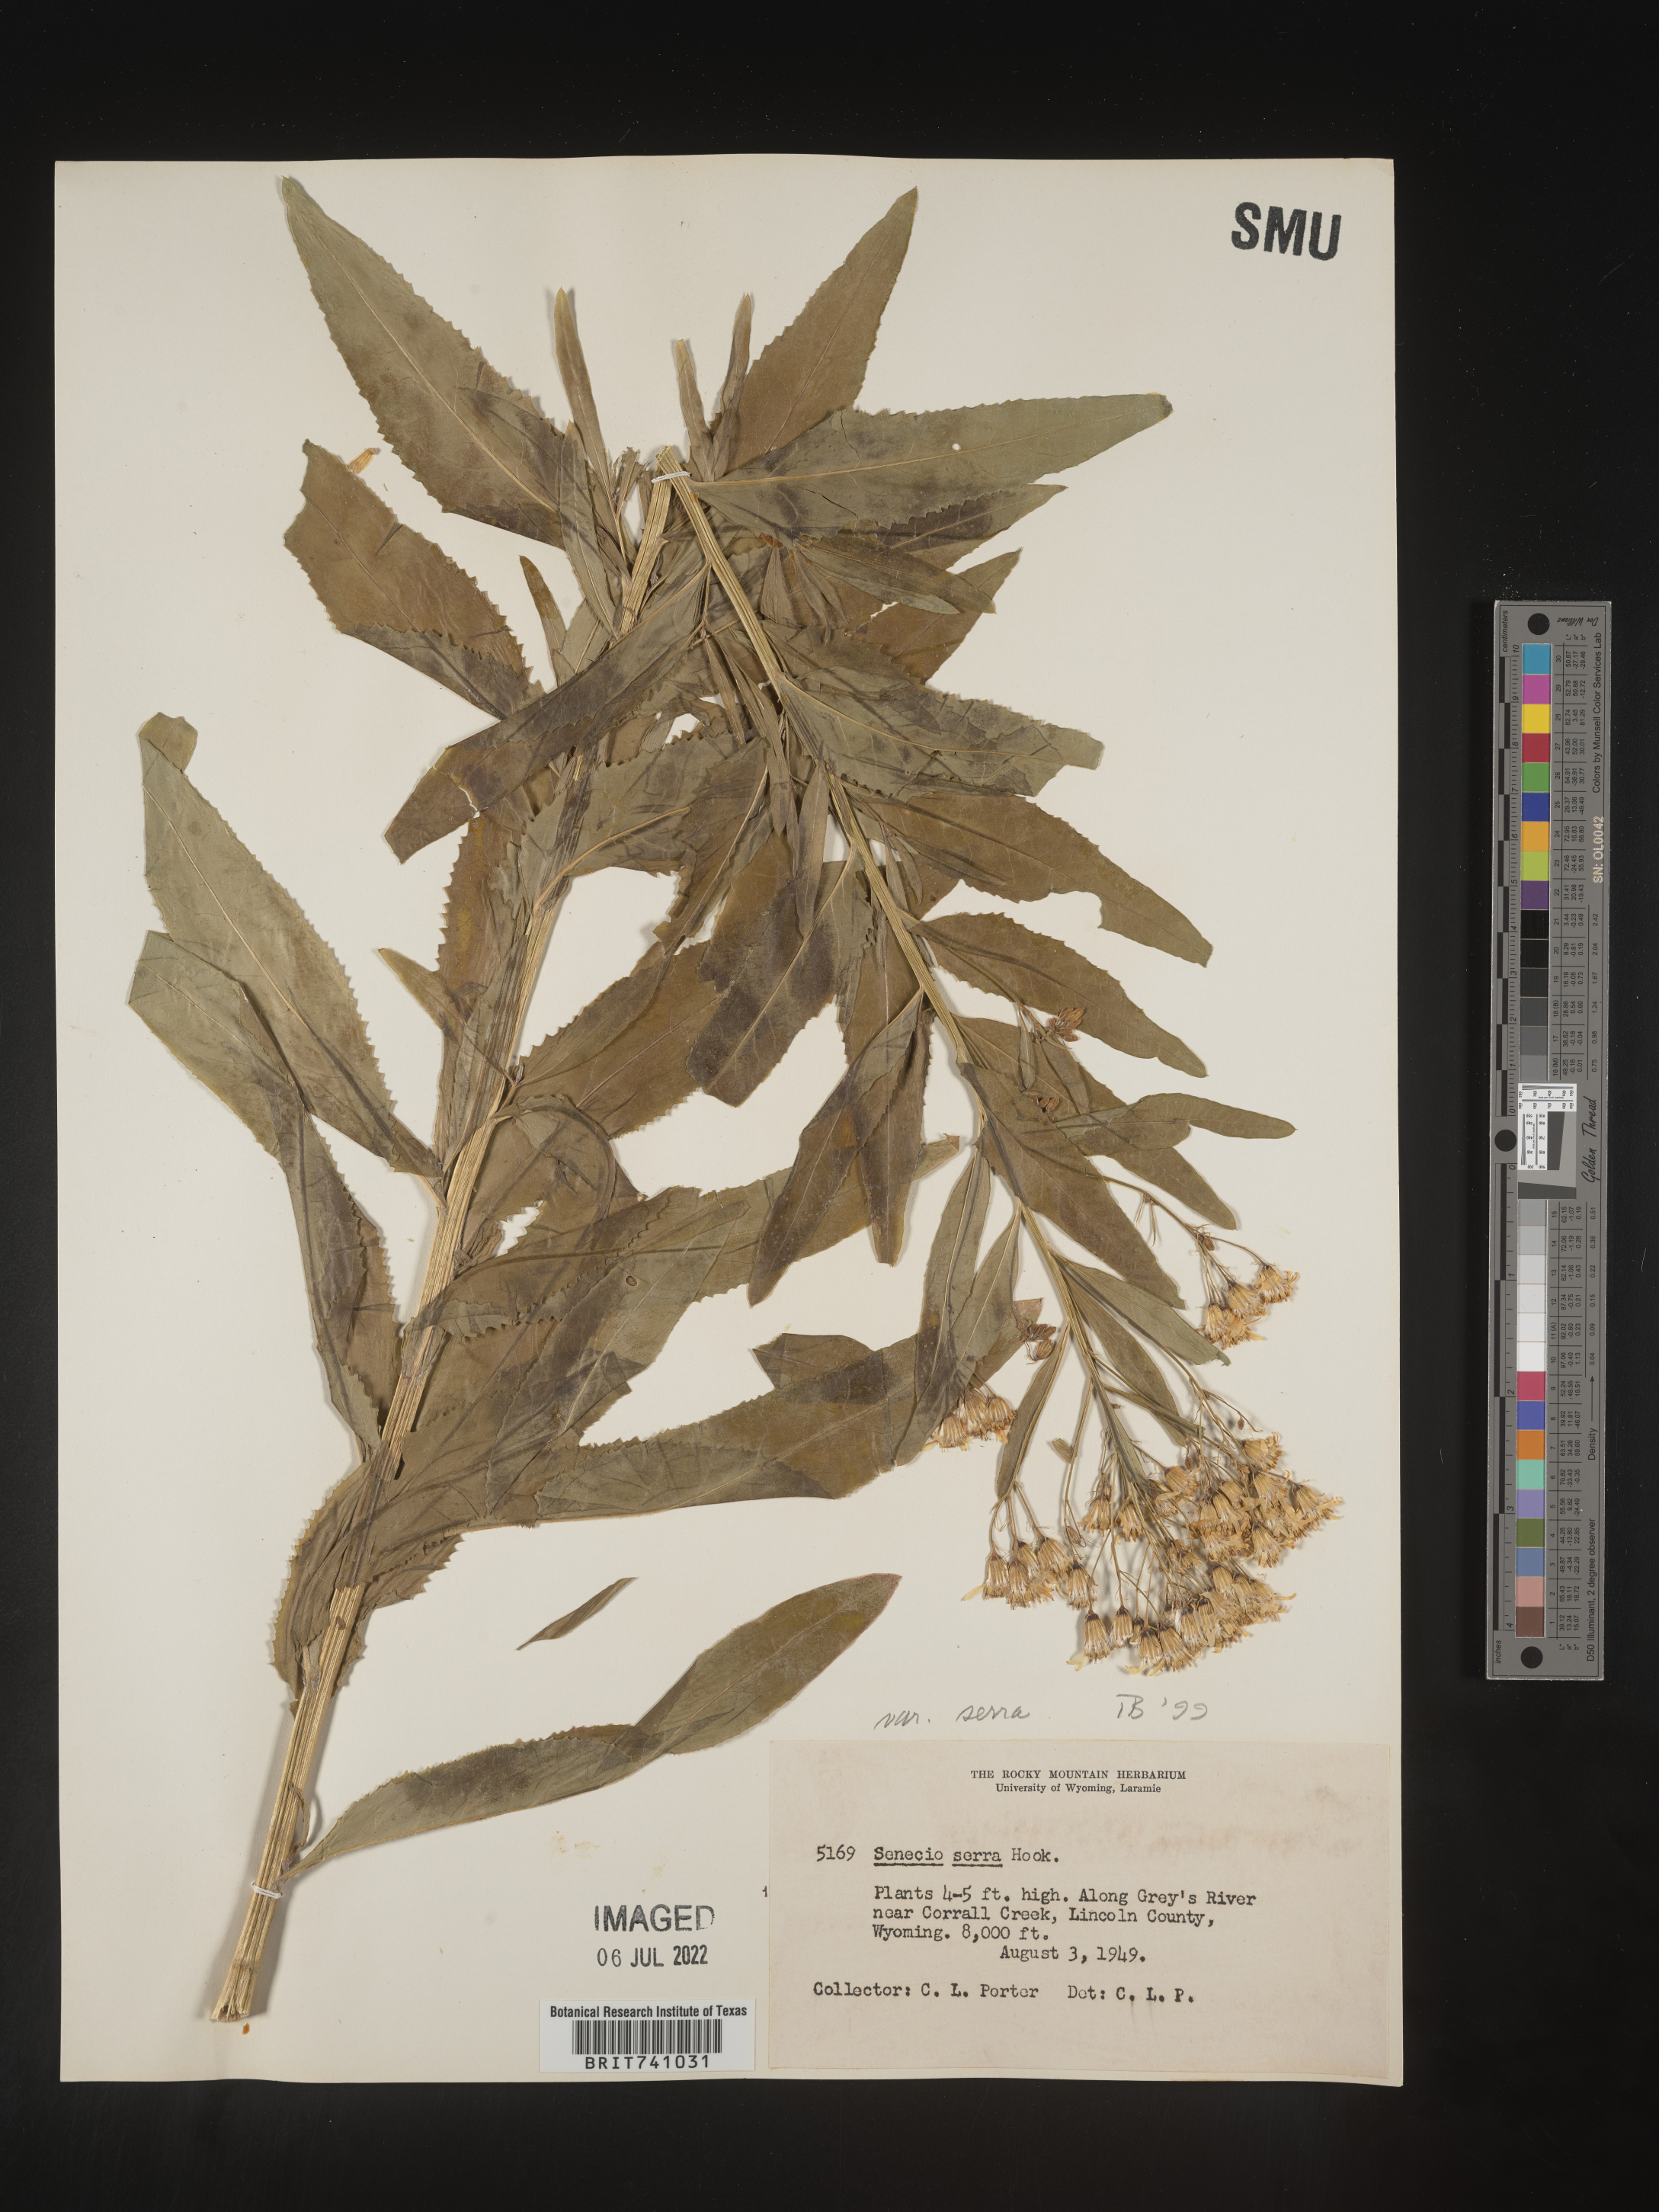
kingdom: Plantae
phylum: Tracheophyta
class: Magnoliopsida
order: Asterales
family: Asteraceae
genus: Senecio
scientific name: Senecio serra
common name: Tall ragwort
